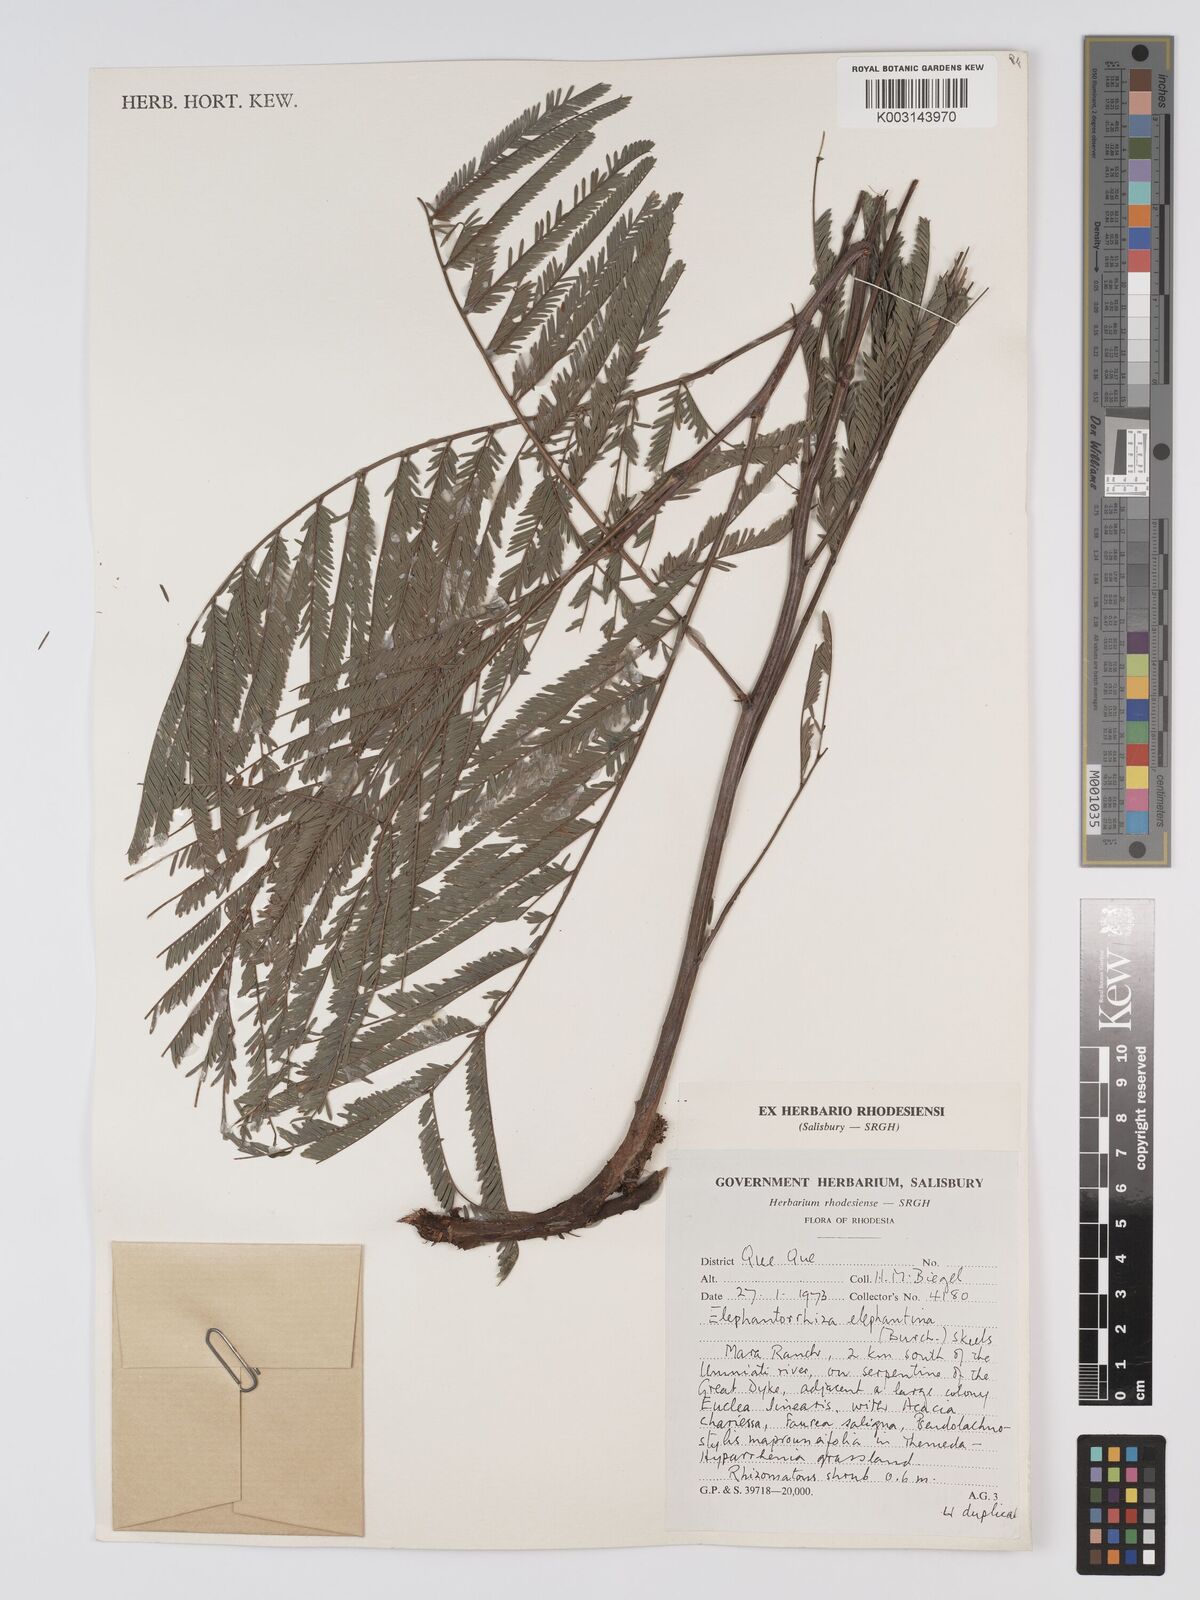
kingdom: Plantae
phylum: Tracheophyta
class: Magnoliopsida
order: Fabales
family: Fabaceae
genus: Elephantorrhiza
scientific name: Elephantorrhiza elephantina
